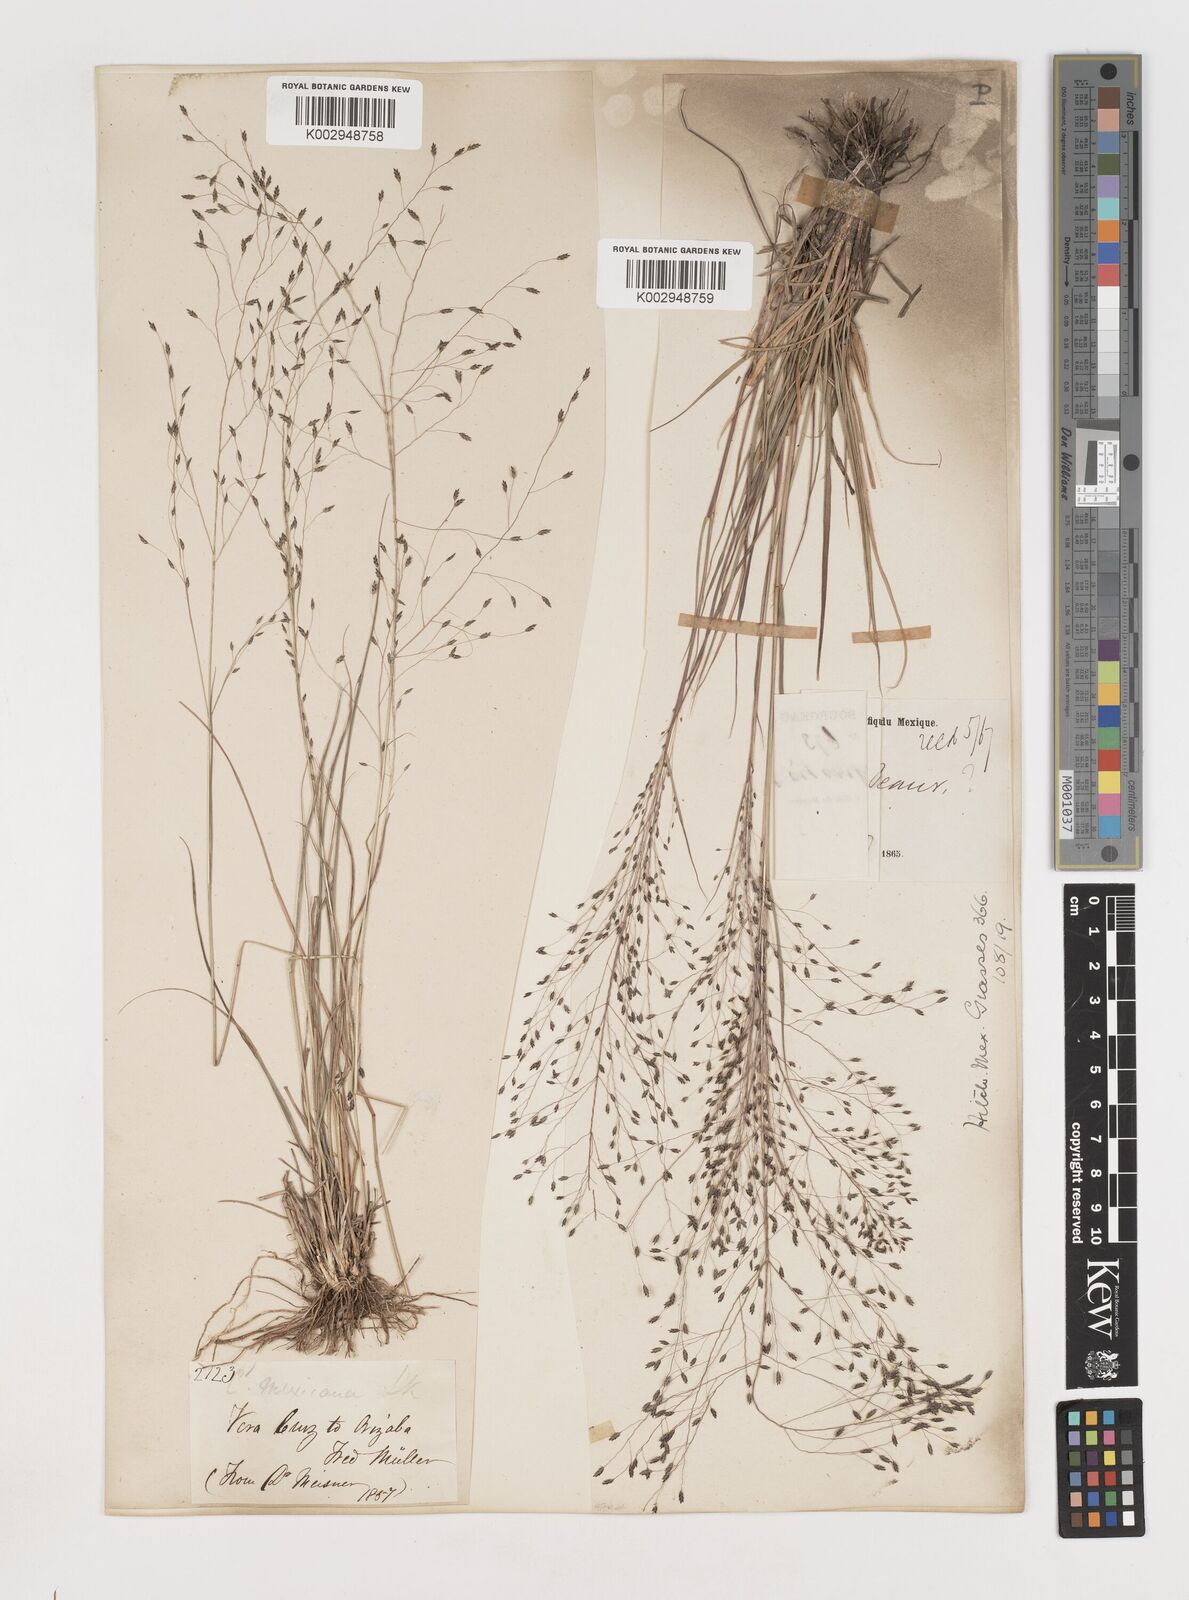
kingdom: Plantae
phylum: Tracheophyta
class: Liliopsida
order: Poales
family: Poaceae
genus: Eragrostis
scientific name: Eragrostis
